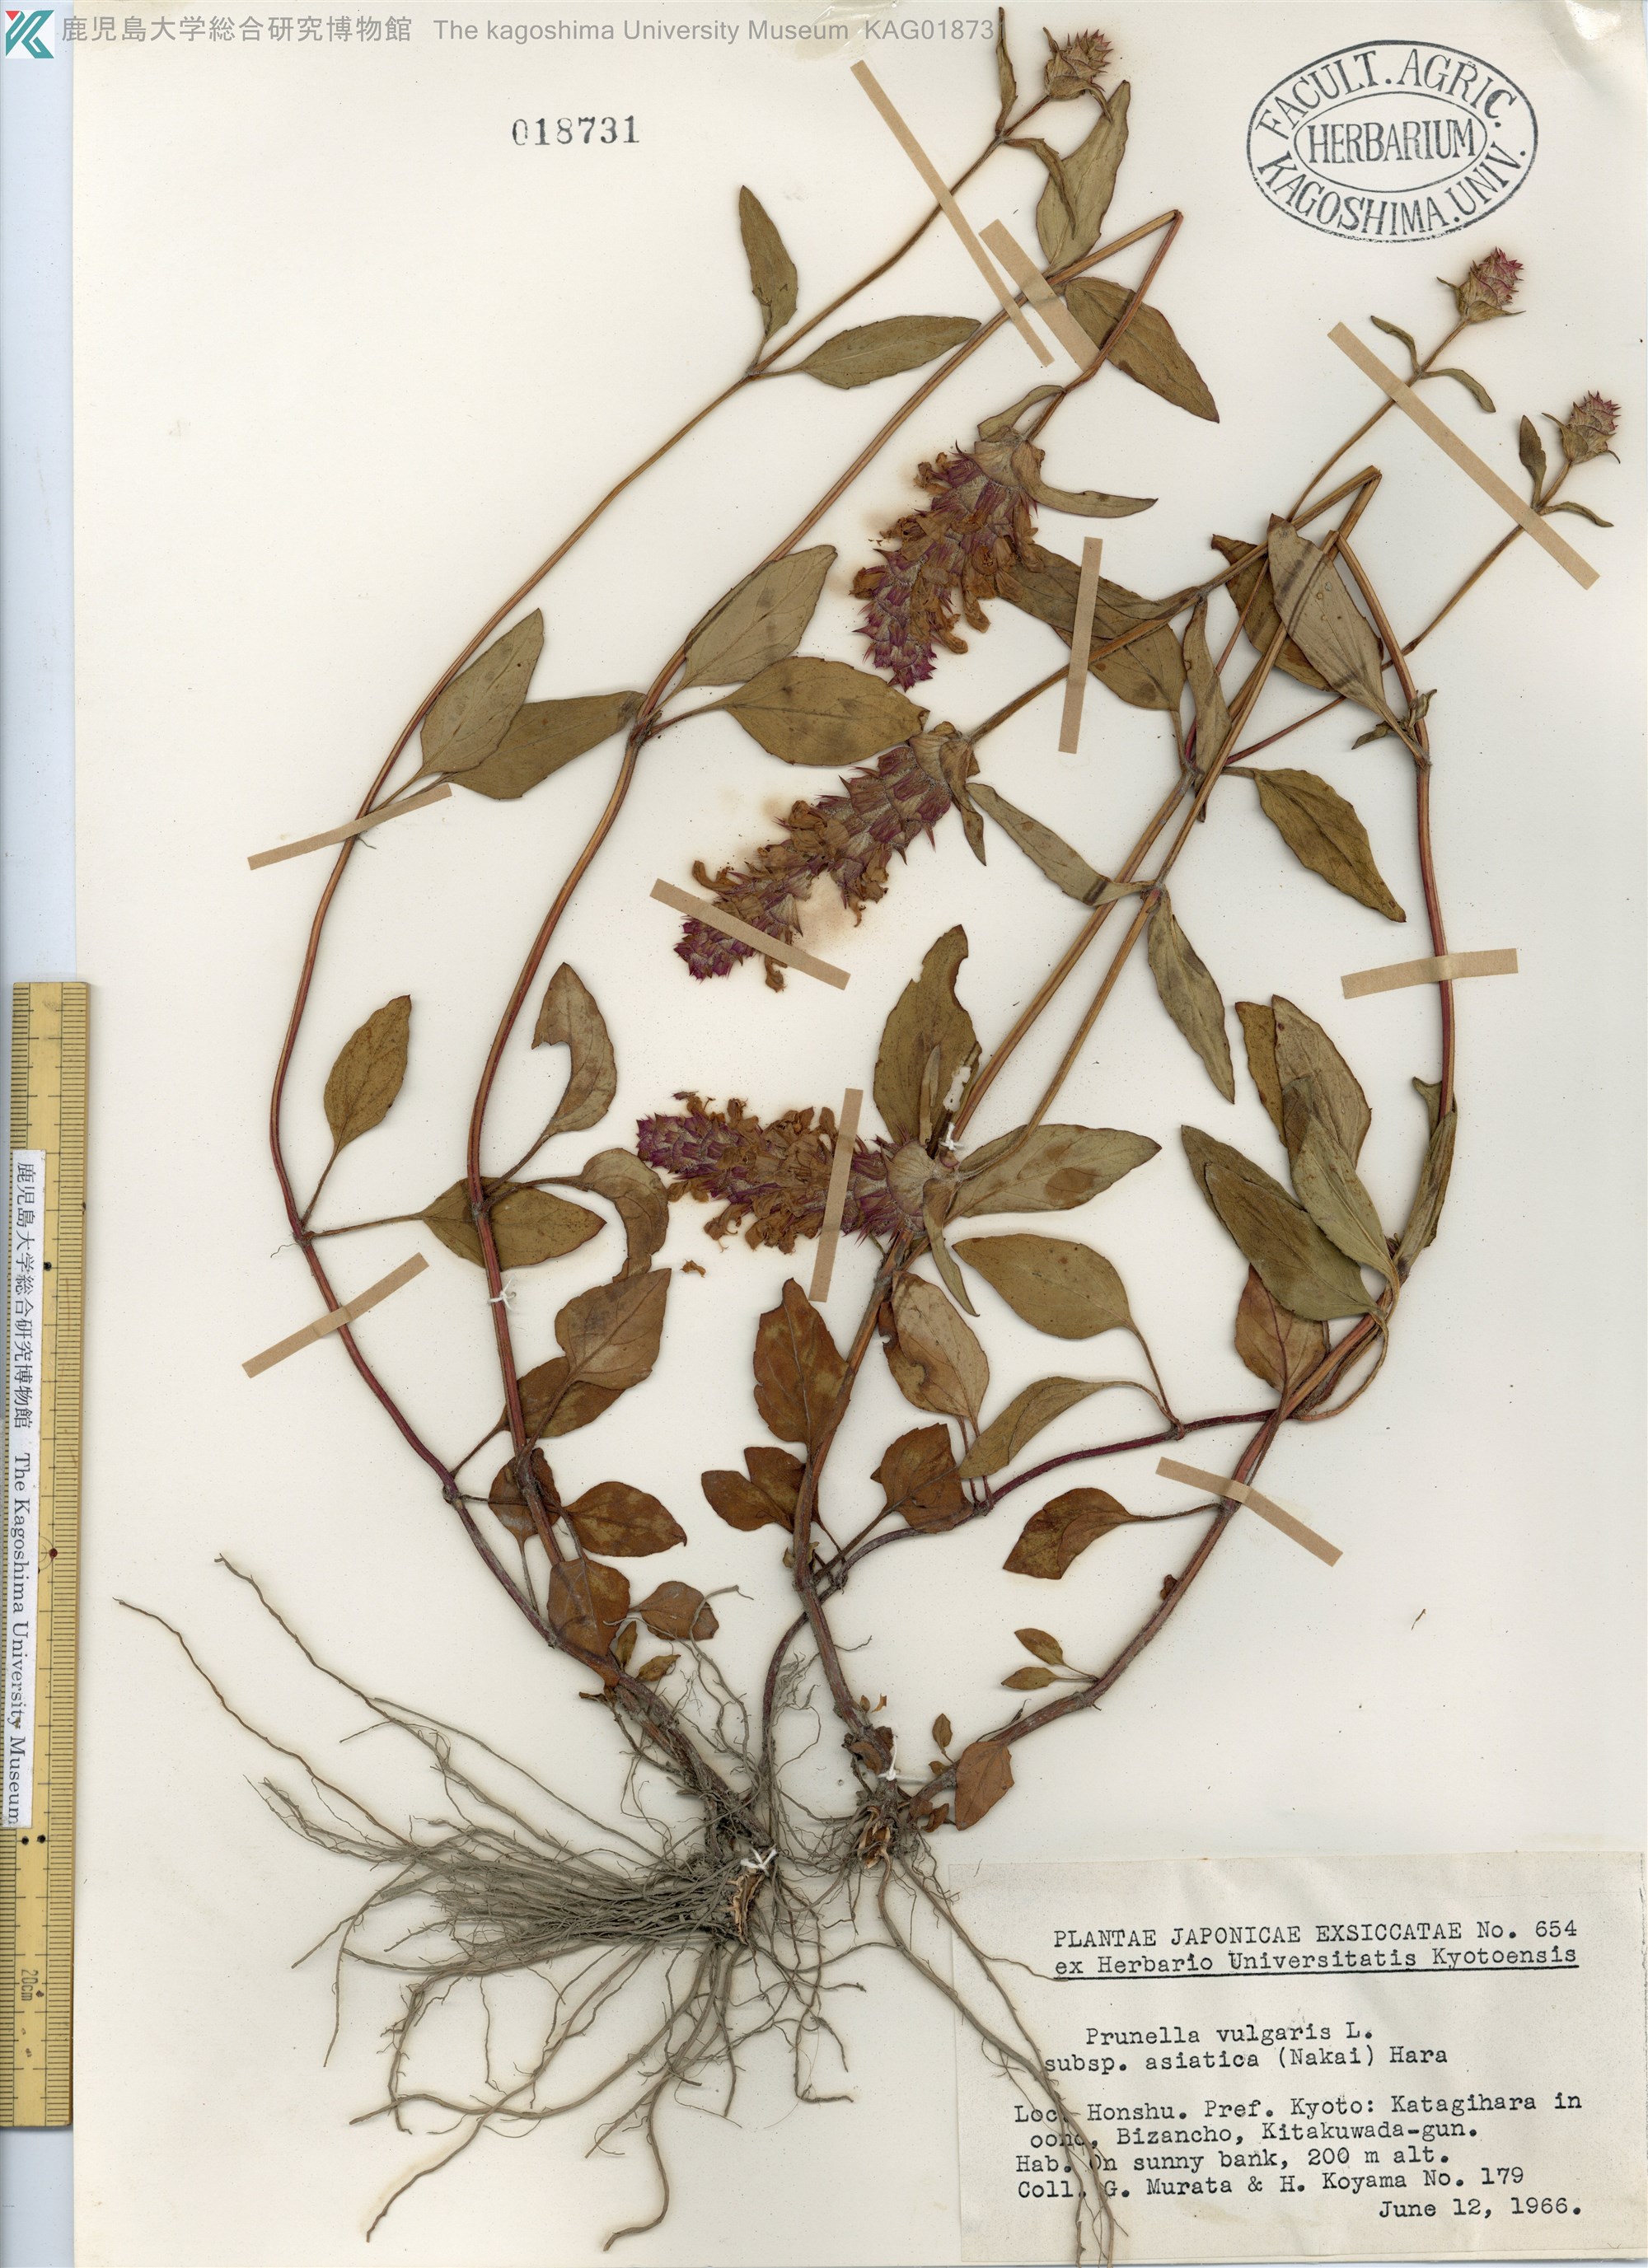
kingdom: Plantae
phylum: Tracheophyta
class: Magnoliopsida
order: Lamiales
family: Lamiaceae
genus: Prunella
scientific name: Prunella vulgaris
